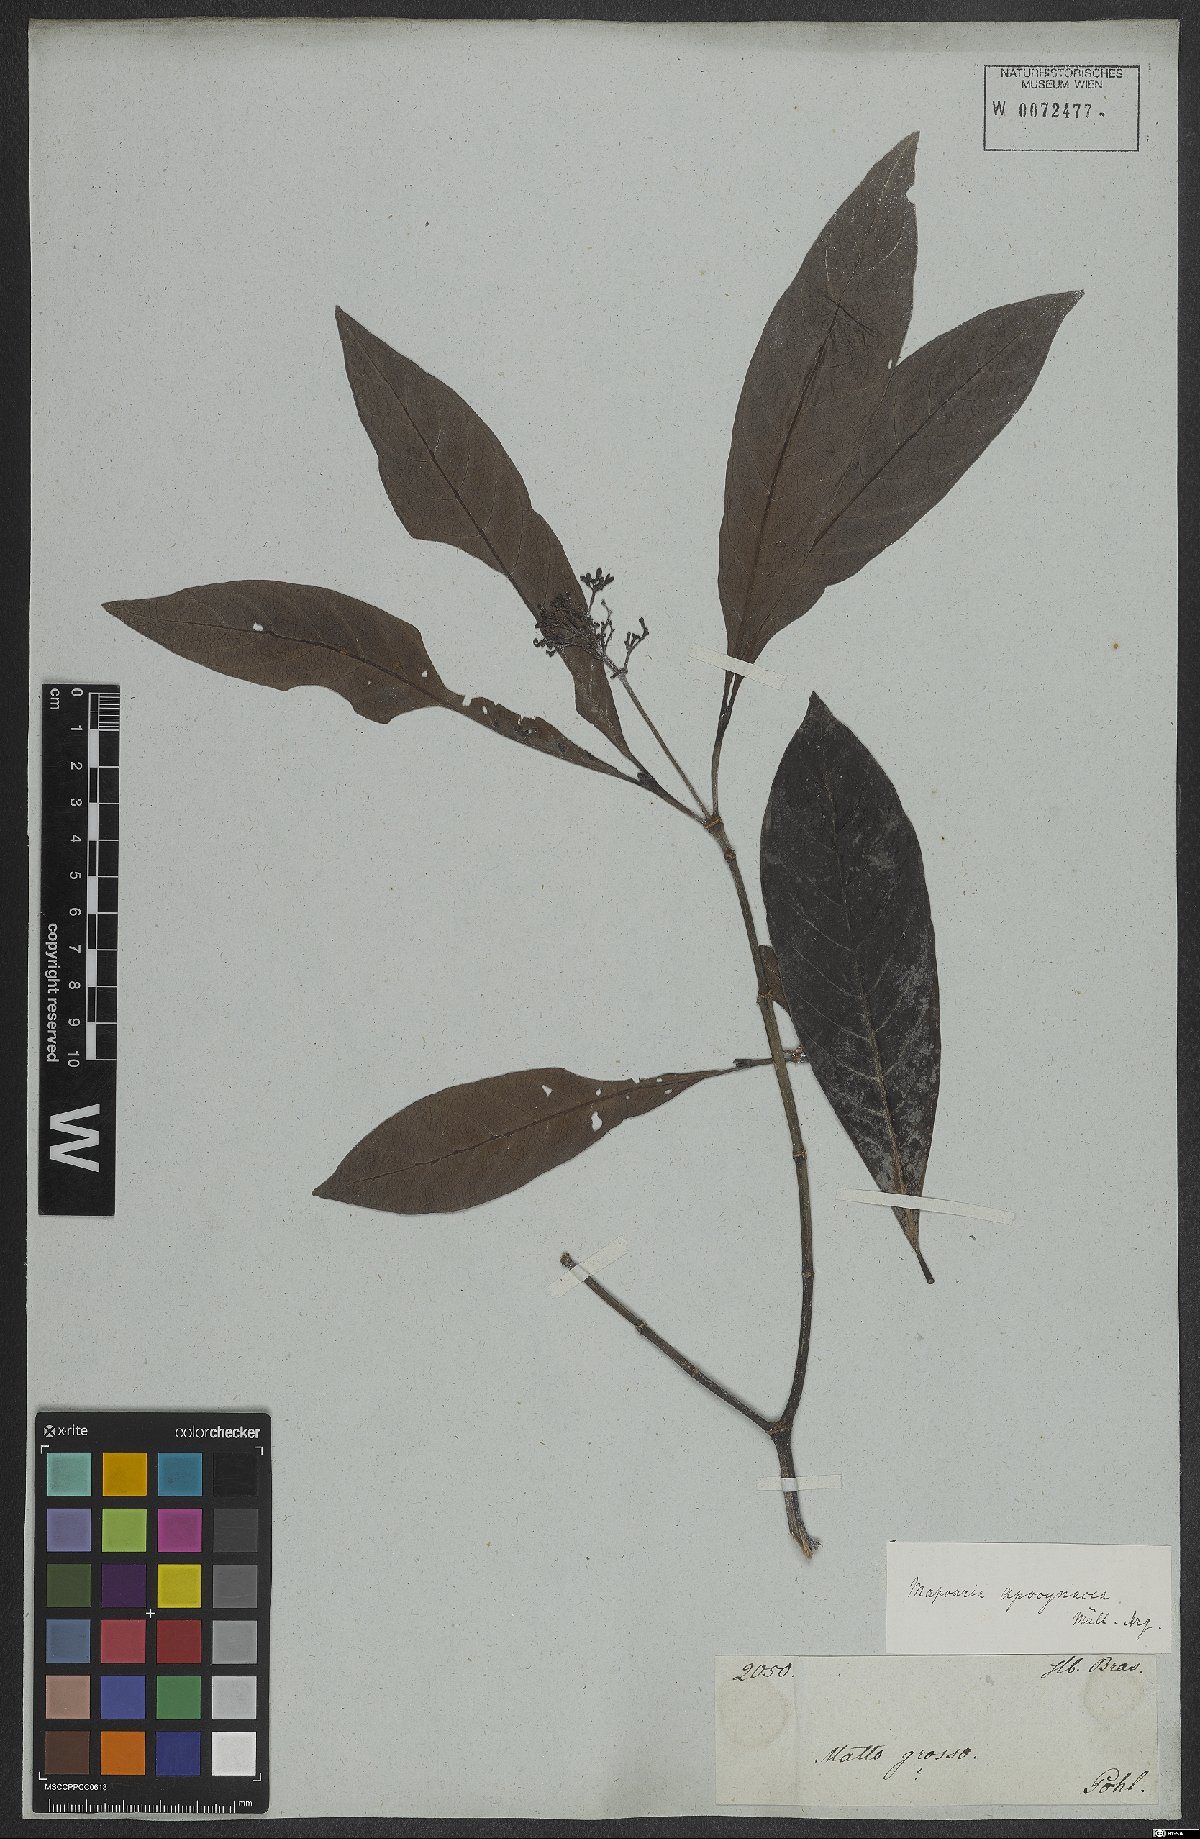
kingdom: Plantae
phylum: Tracheophyta
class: Magnoliopsida
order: Gentianales
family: Rubiaceae
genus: Psychotria
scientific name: Psychotria
